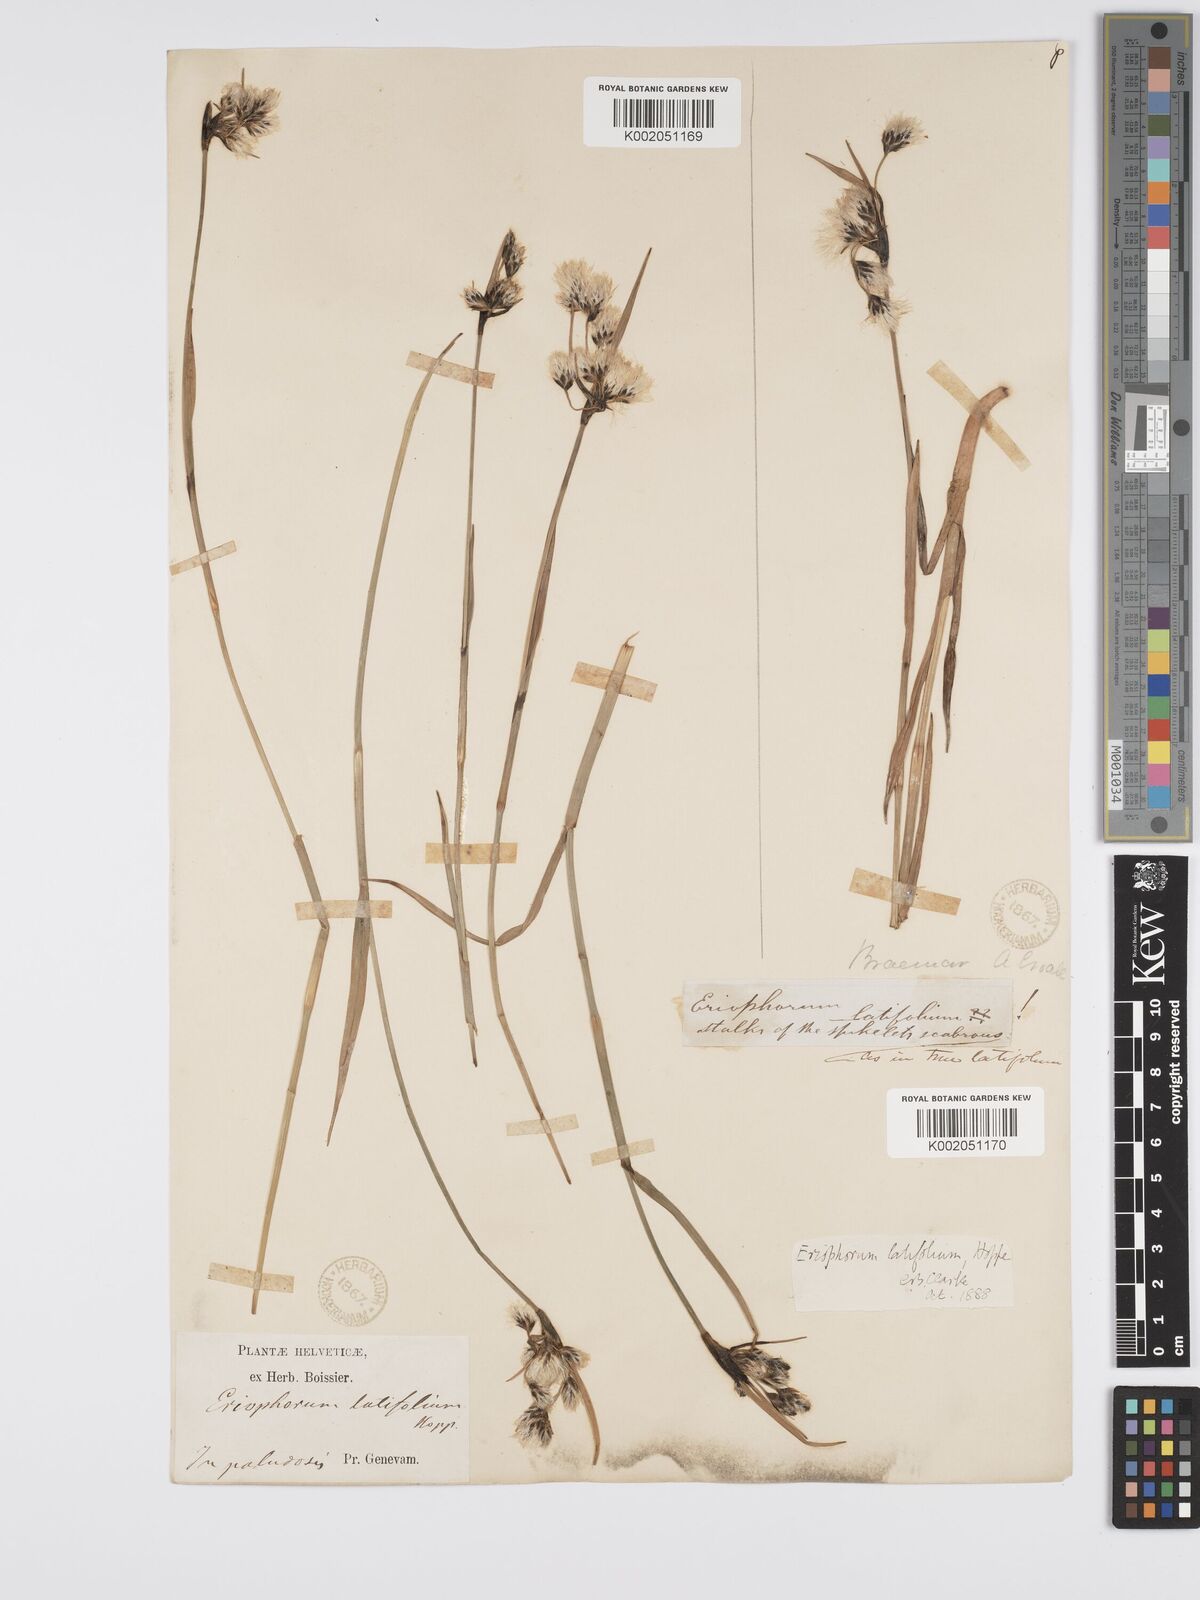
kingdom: Plantae
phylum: Tracheophyta
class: Liliopsida
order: Poales
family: Cyperaceae
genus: Eriophorum
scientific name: Eriophorum latifolium
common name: Broad-leaved cottongrass
